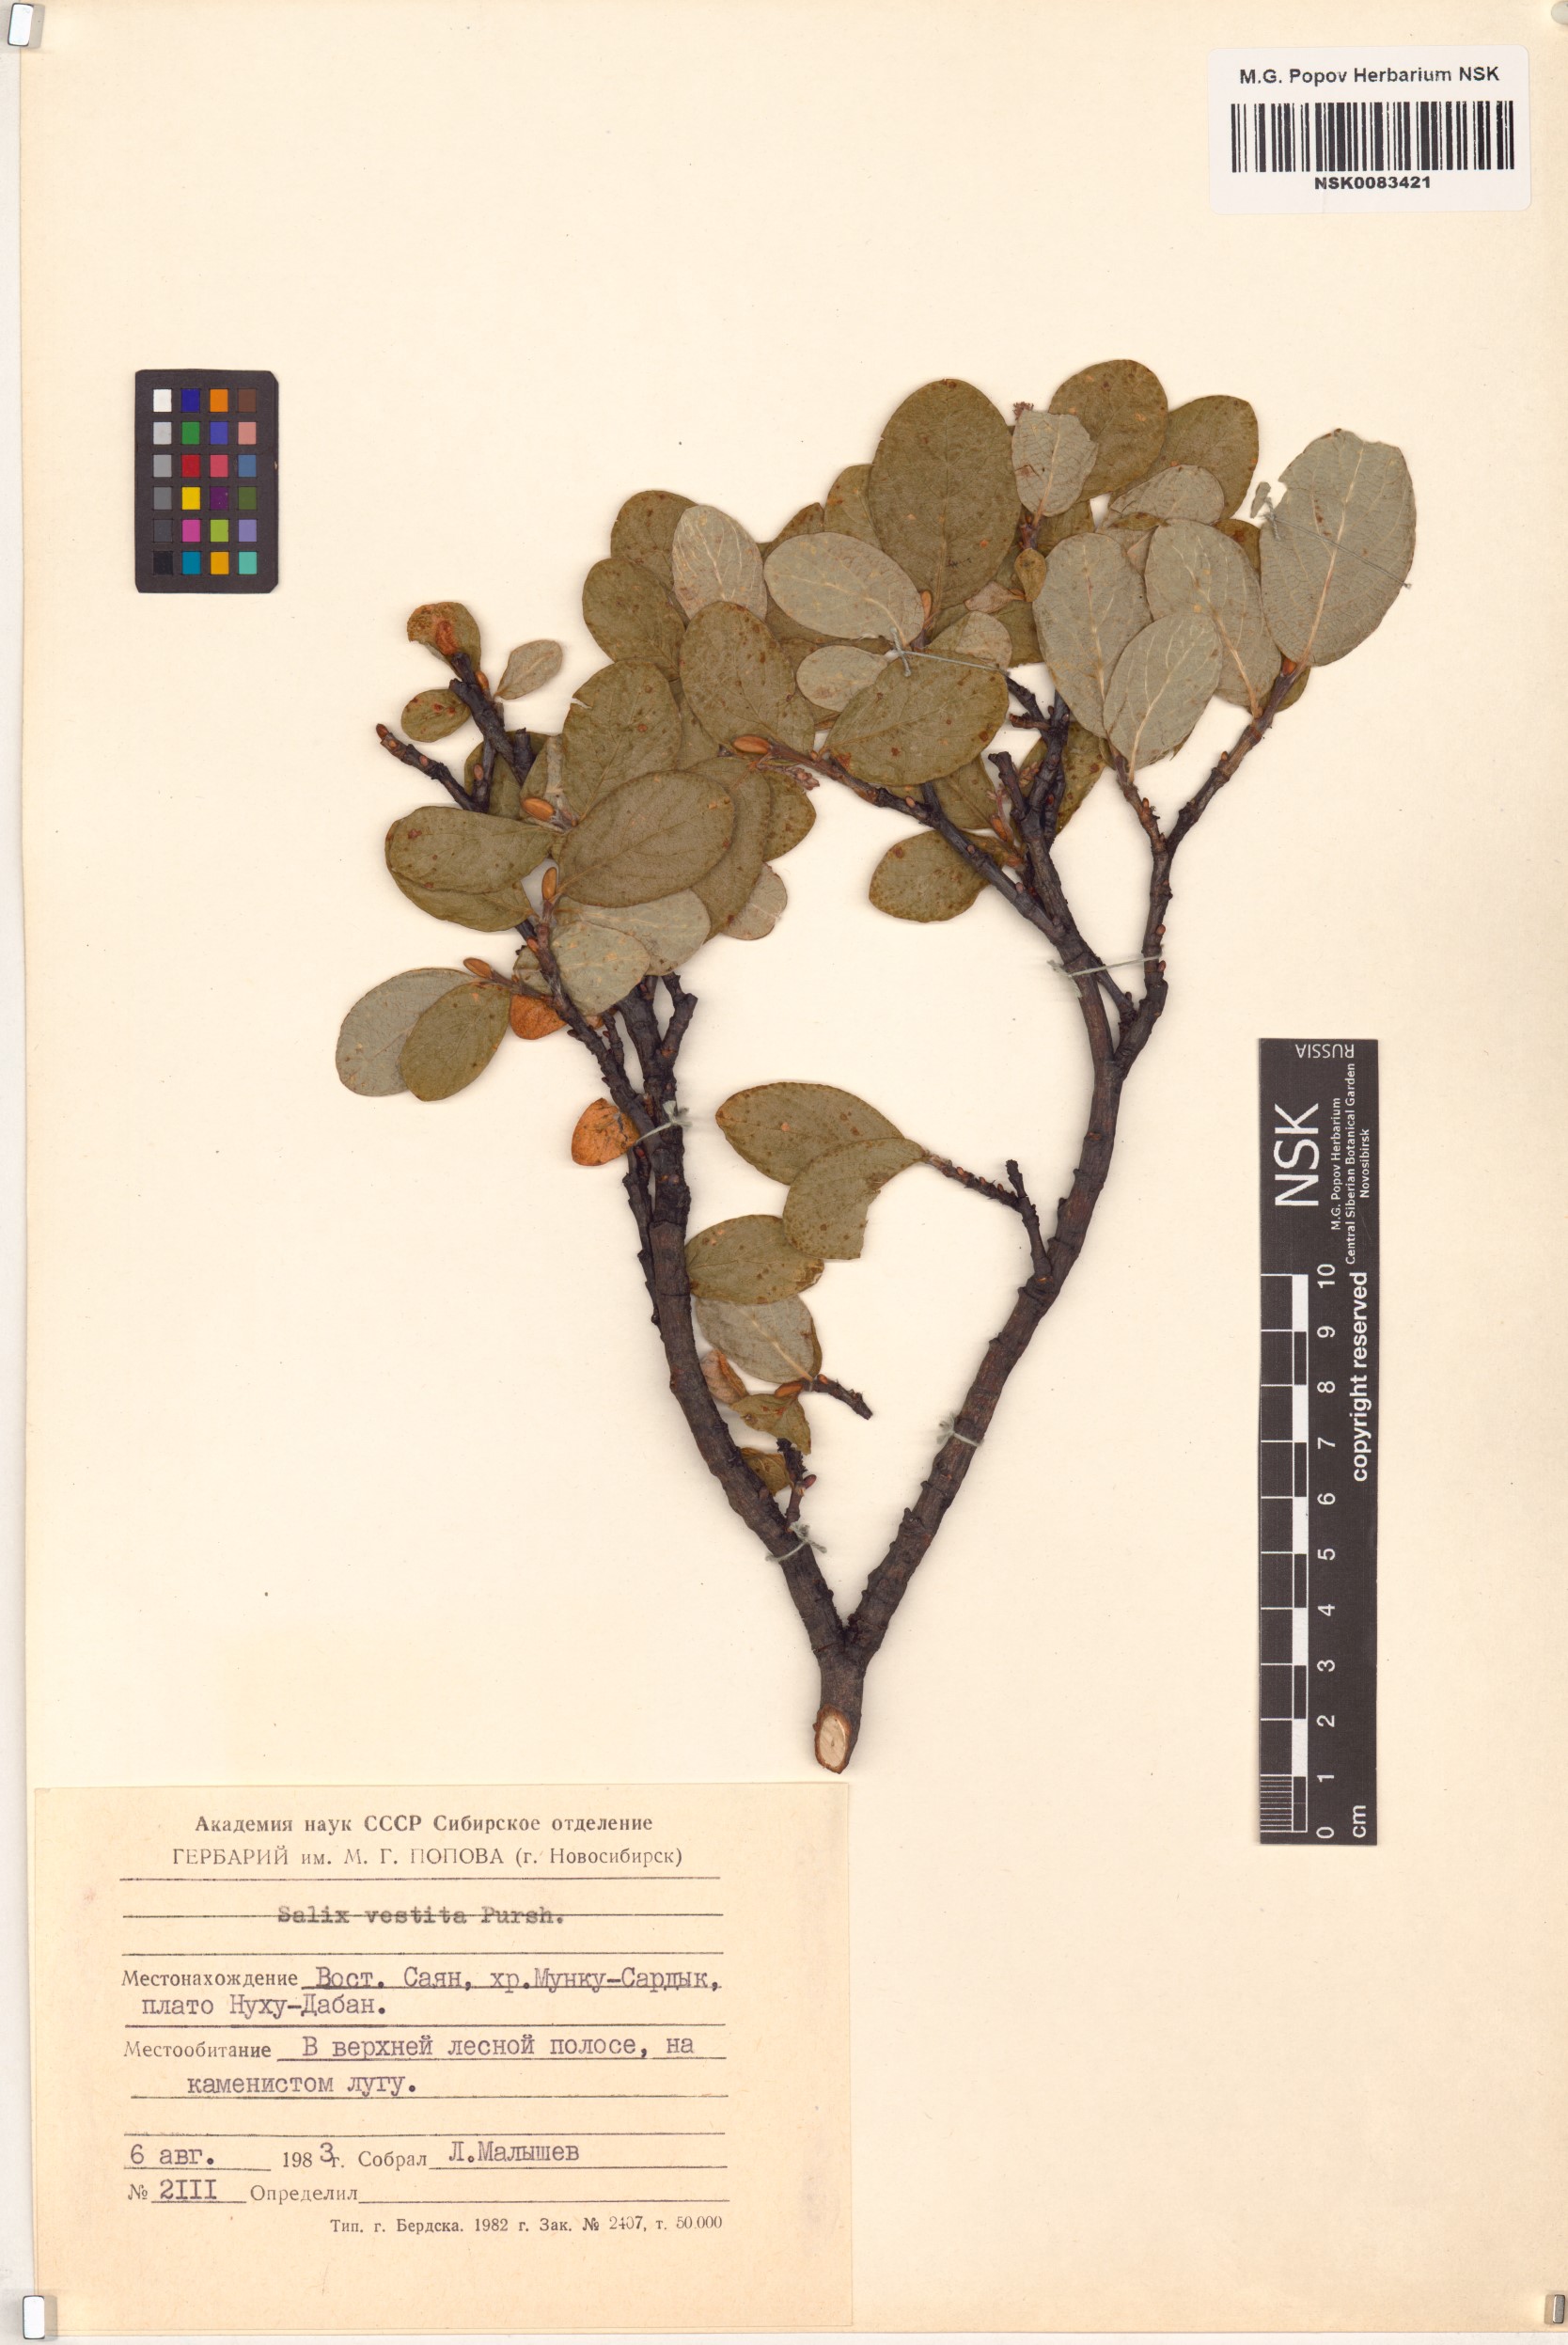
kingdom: Plantae
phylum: Tracheophyta
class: Magnoliopsida
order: Malpighiales
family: Salicaceae
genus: Salix
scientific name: Salix vestita
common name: Hairy willow
